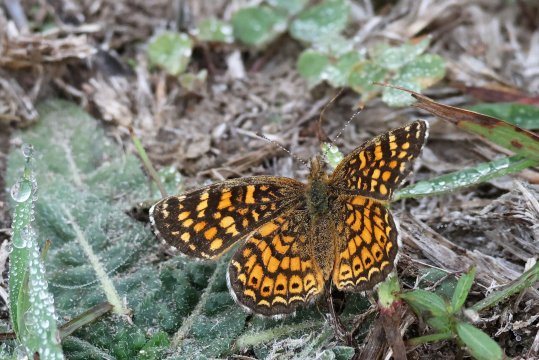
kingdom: Animalia
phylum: Arthropoda
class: Insecta
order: Lepidoptera
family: Nymphalidae
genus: Phyciodes
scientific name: Phyciodes vesta
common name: Vesta Crescent
